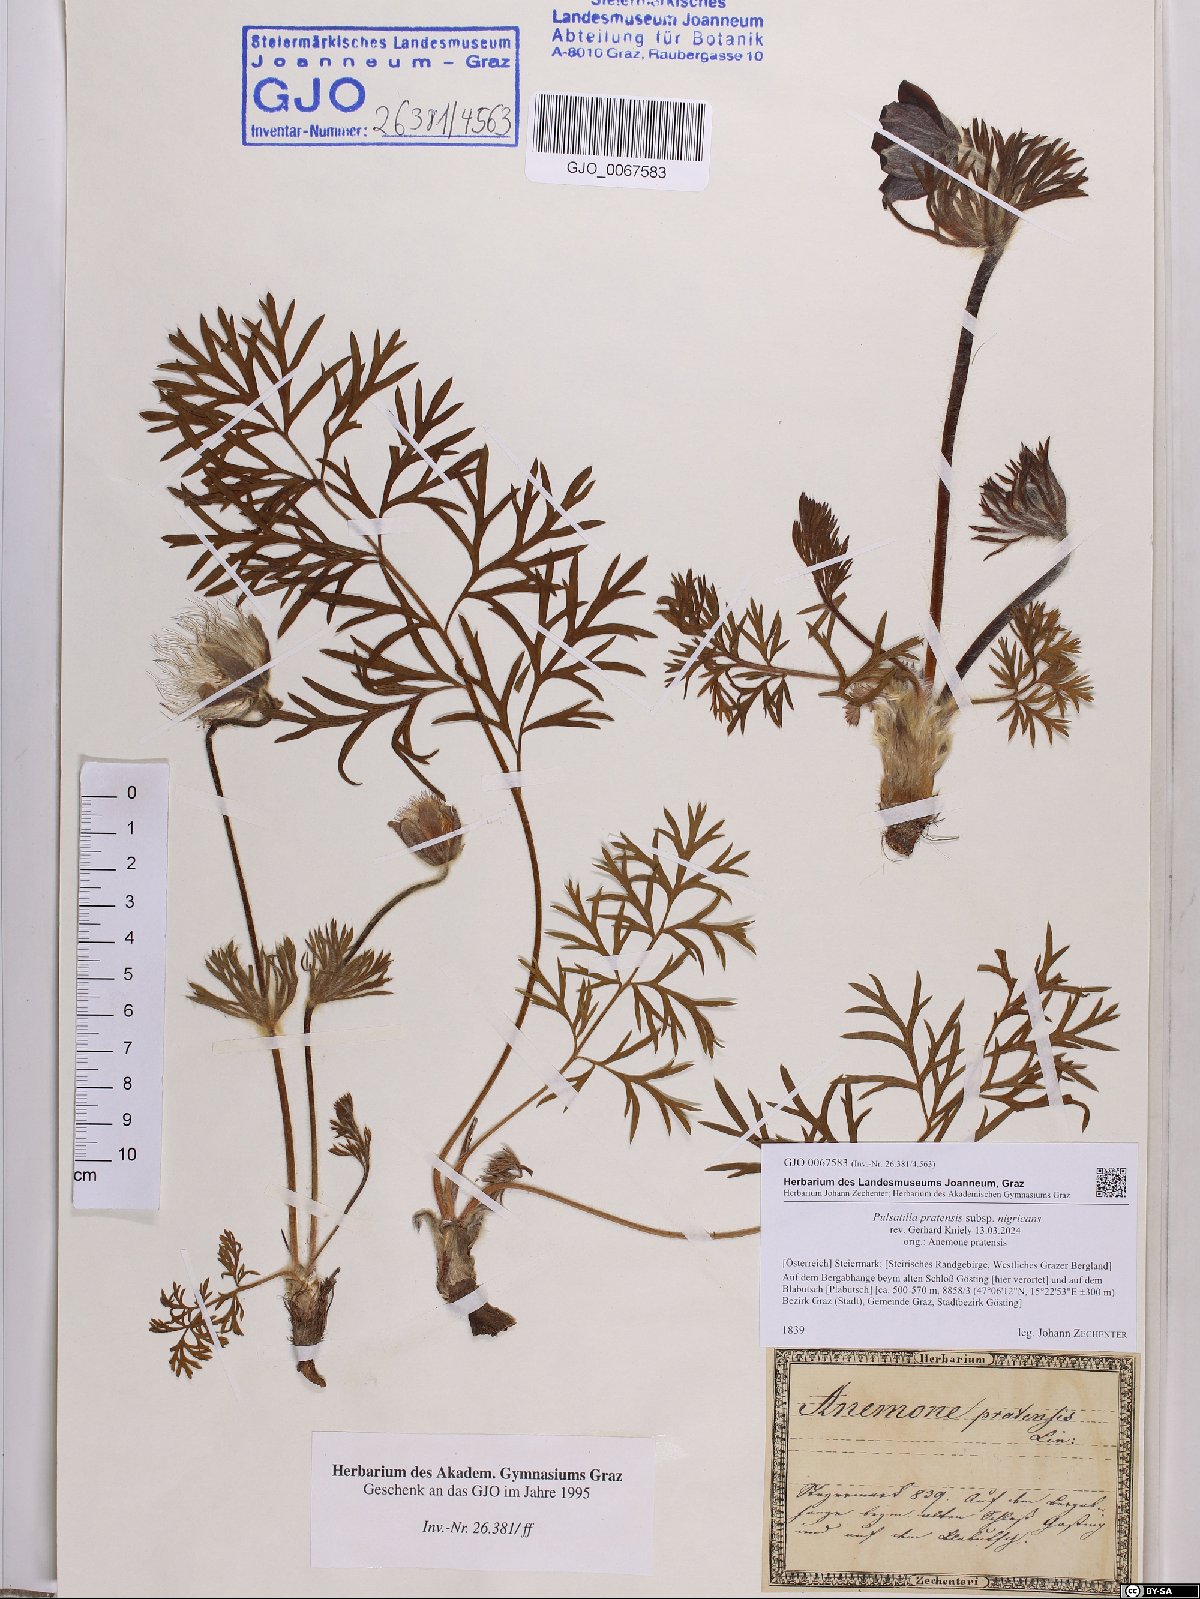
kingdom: Plantae
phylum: Tracheophyta
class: Magnoliopsida
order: Ranunculales
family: Ranunculaceae
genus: Pulsatilla
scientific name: Pulsatilla pratensis
